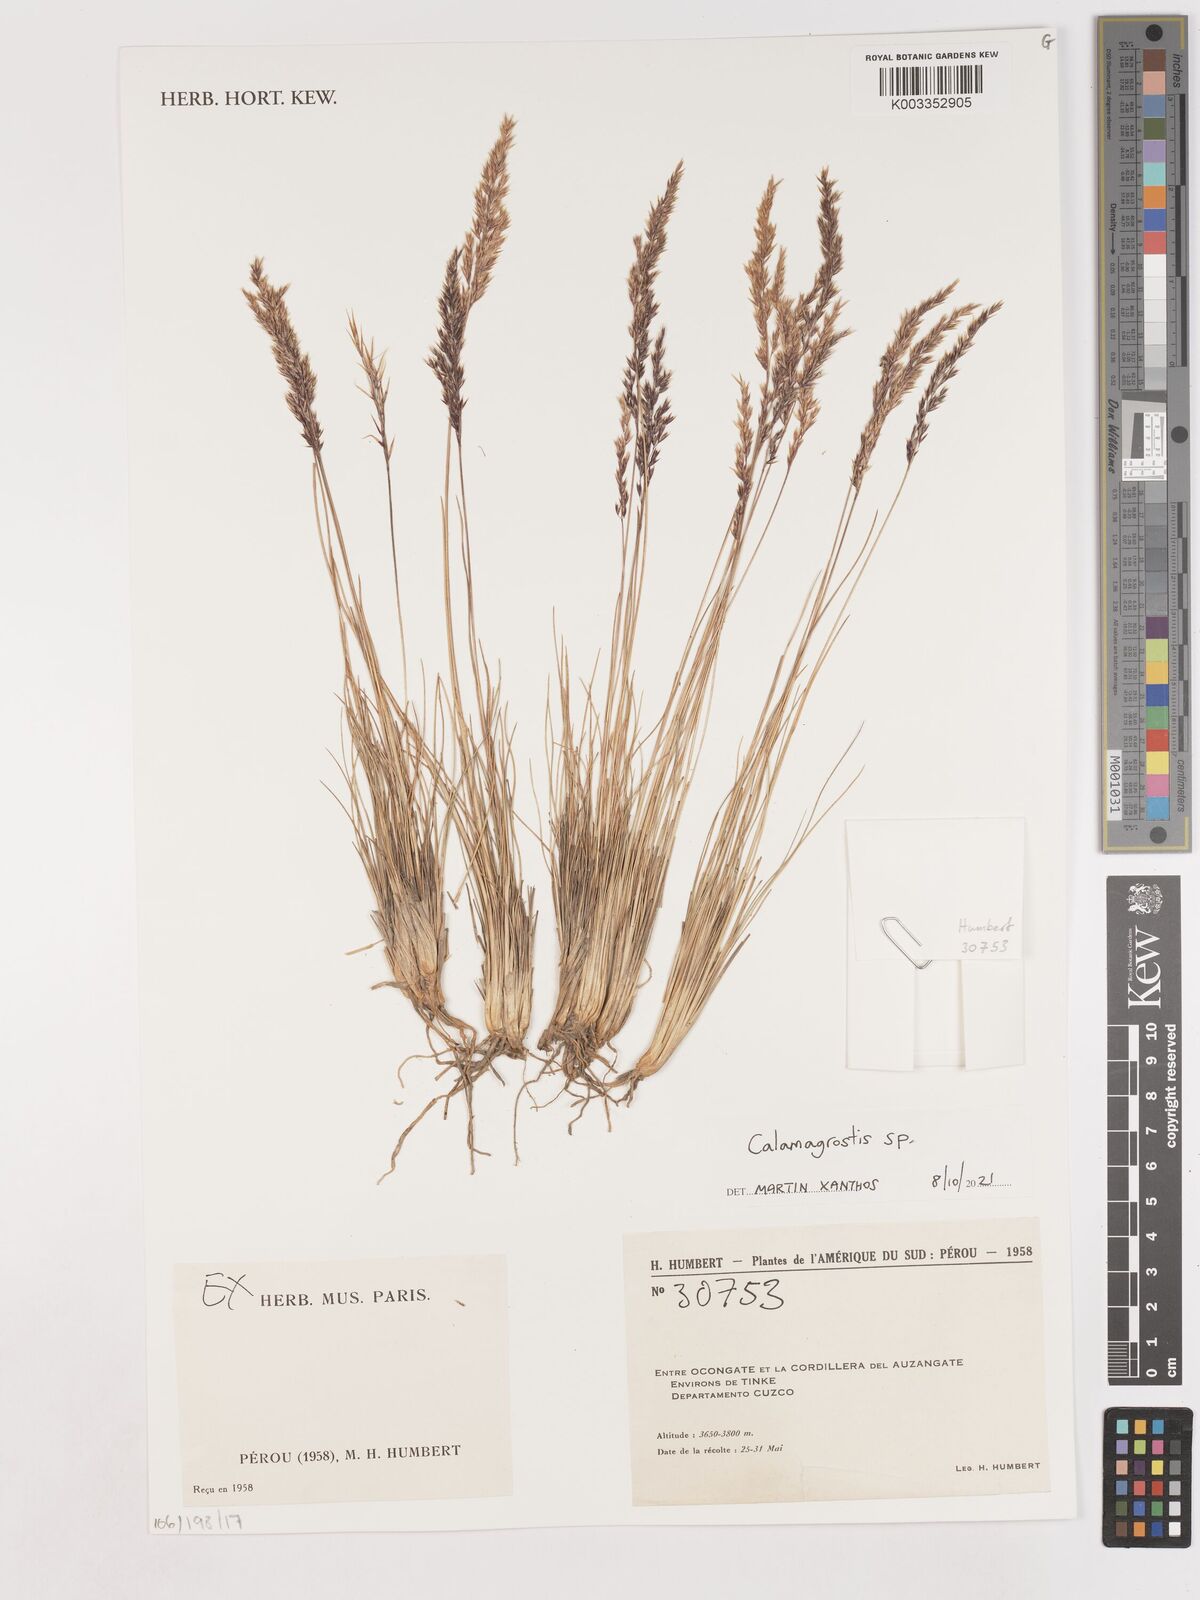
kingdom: Plantae
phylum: Tracheophyta
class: Liliopsida
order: Poales
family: Poaceae
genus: Calamagrostis
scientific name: Calamagrostis
